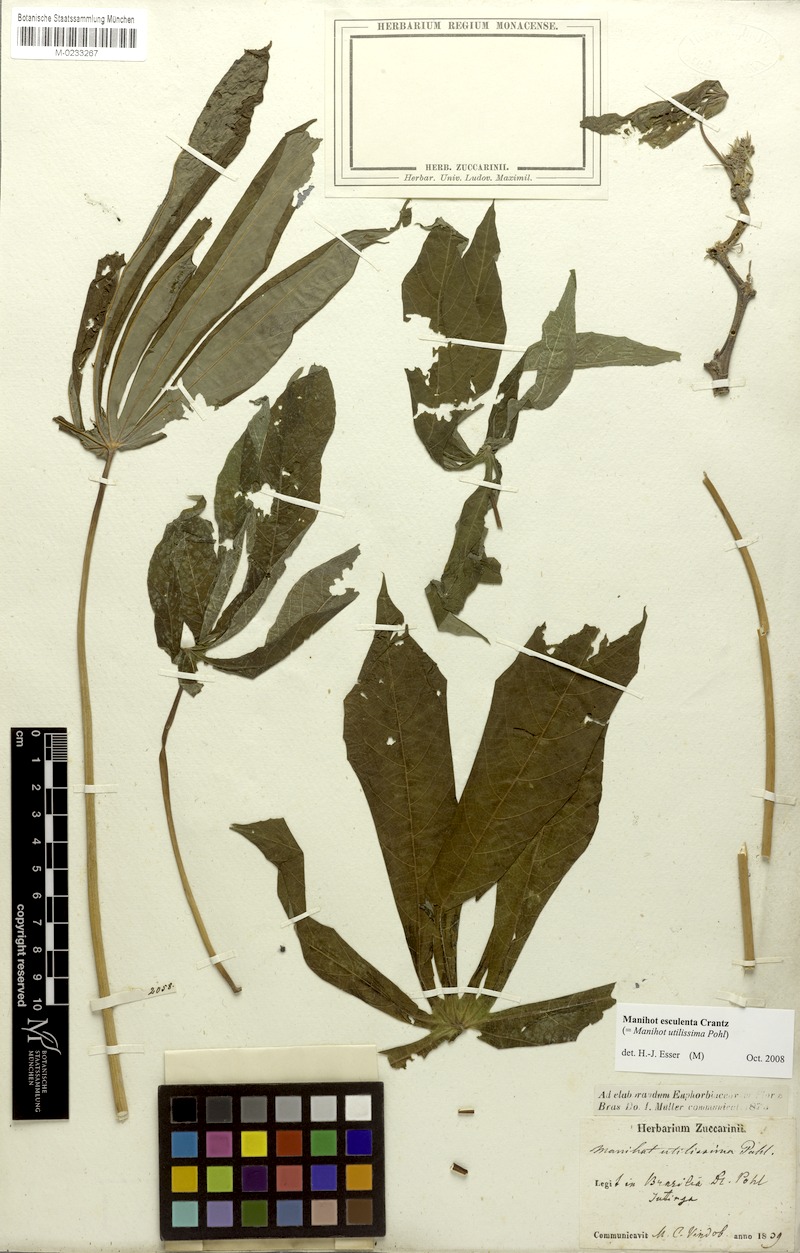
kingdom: Plantae
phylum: Tracheophyta
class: Magnoliopsida
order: Malpighiales
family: Euphorbiaceae
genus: Manihot
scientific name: Manihot esculenta
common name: Cassava
